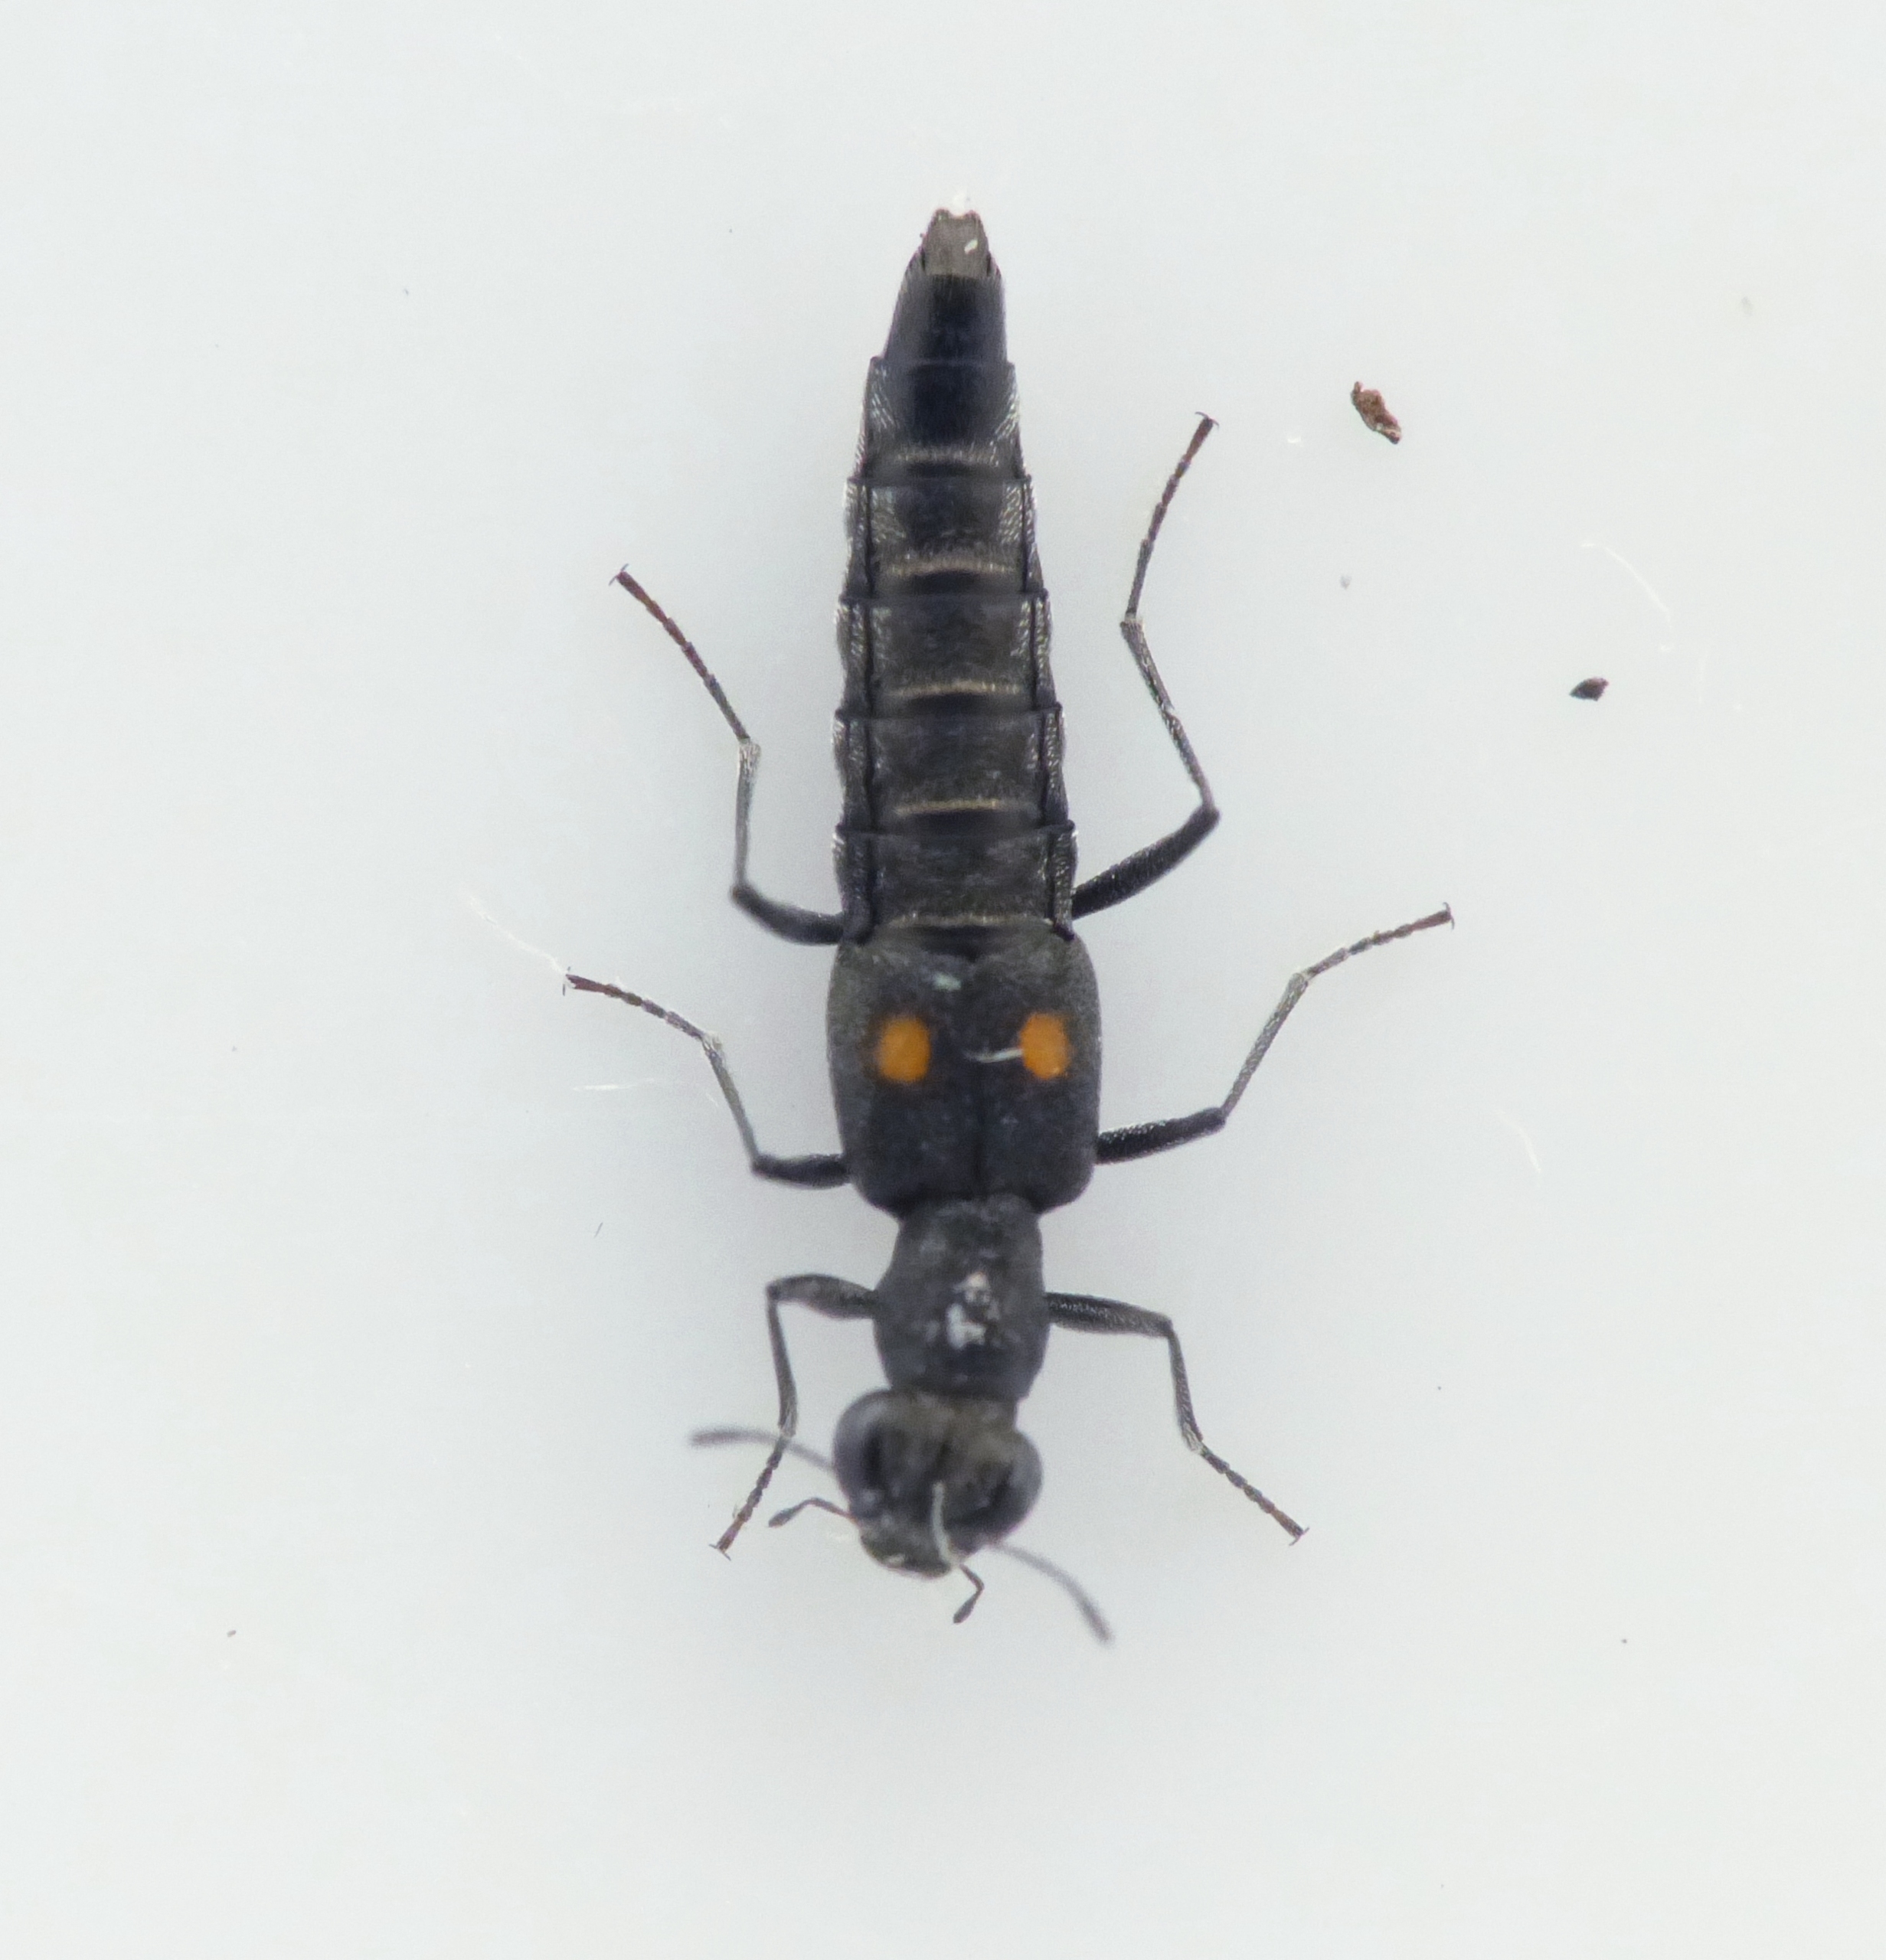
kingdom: Animalia
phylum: Arthropoda
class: Insecta
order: Coleoptera
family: Staphylinidae
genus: Stenus
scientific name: Stenus biguttatus
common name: Toplettet øjenrovbille
